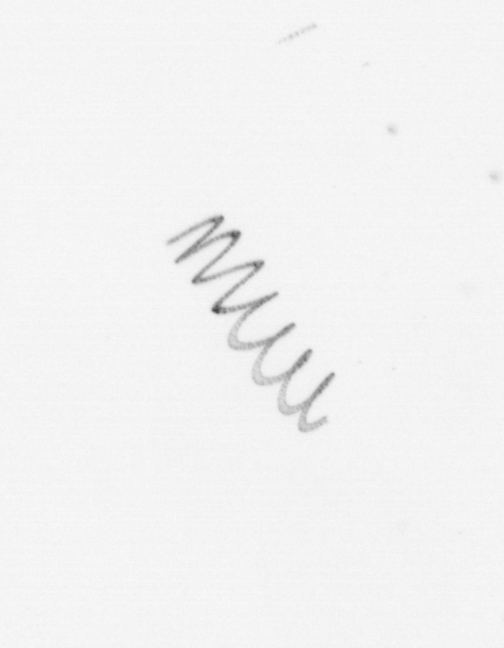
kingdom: Chromista
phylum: Ochrophyta
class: Bacillariophyceae
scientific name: Bacillariophyceae
